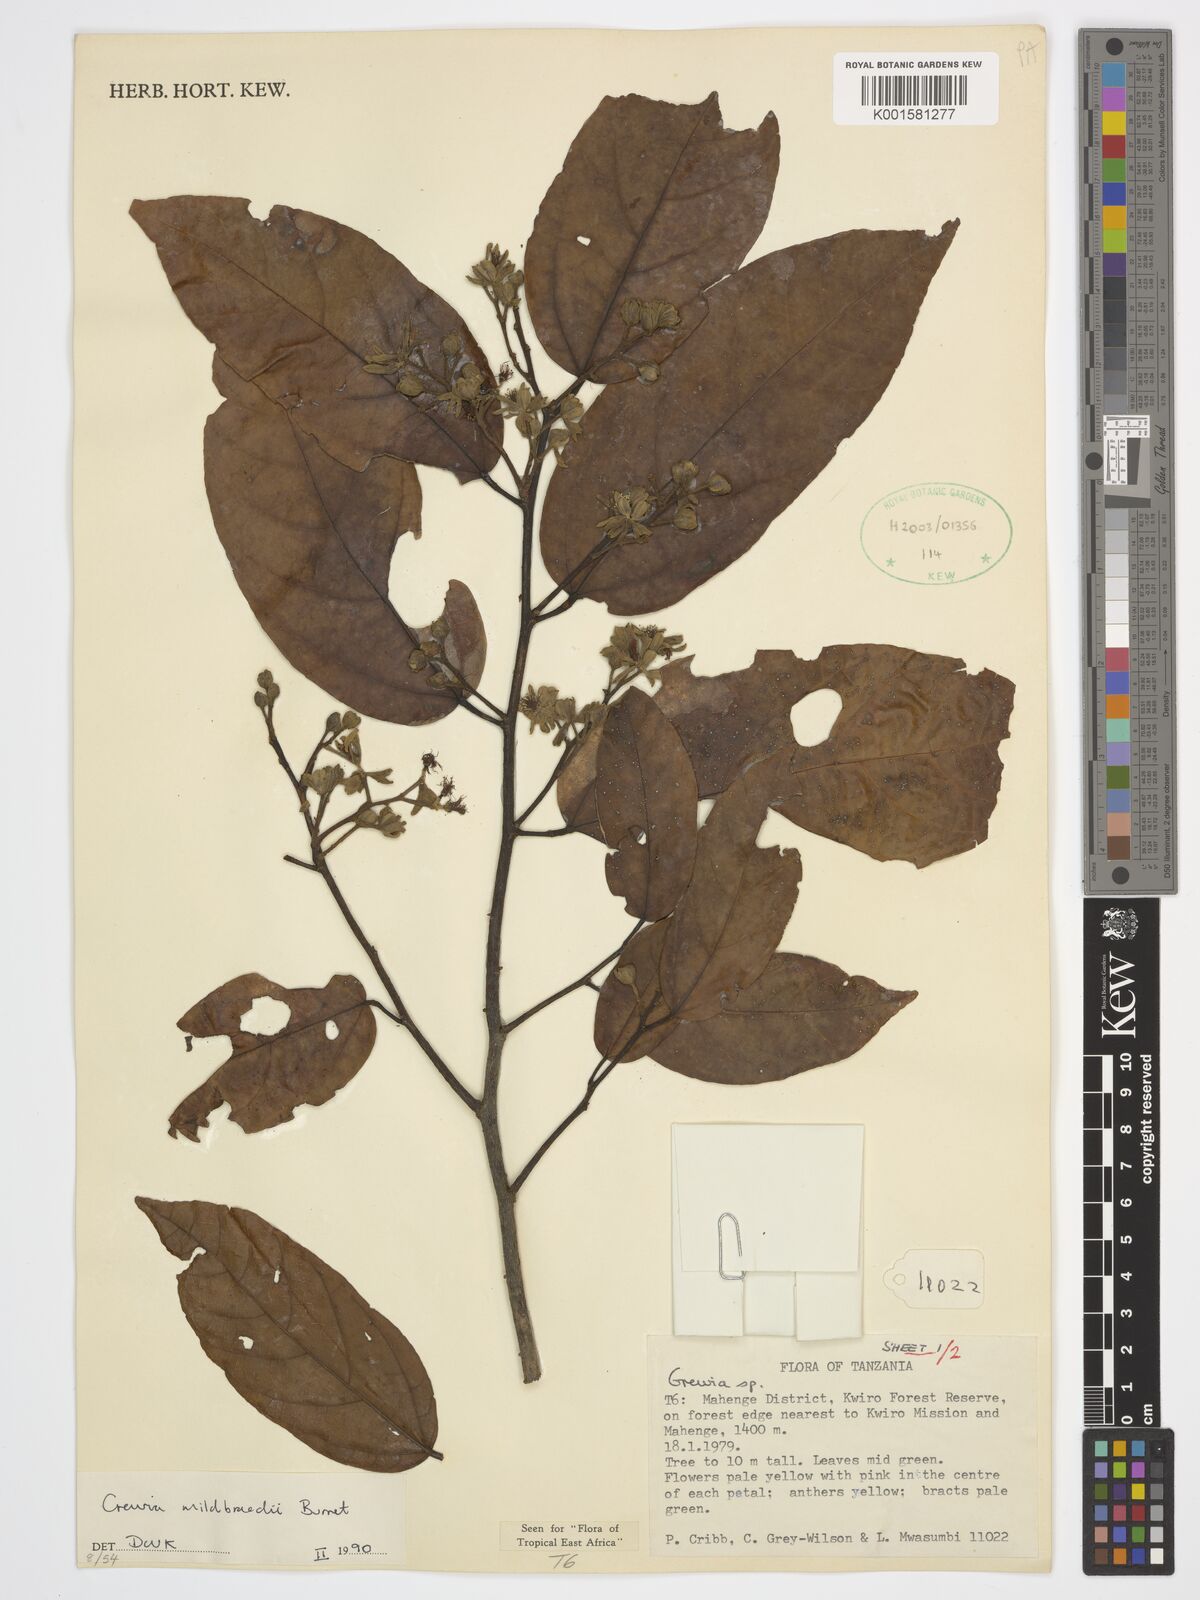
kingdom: Plantae
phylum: Tracheophyta
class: Magnoliopsida
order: Malvales
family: Malvaceae
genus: Microcos
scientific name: Microcos mildbraedii
